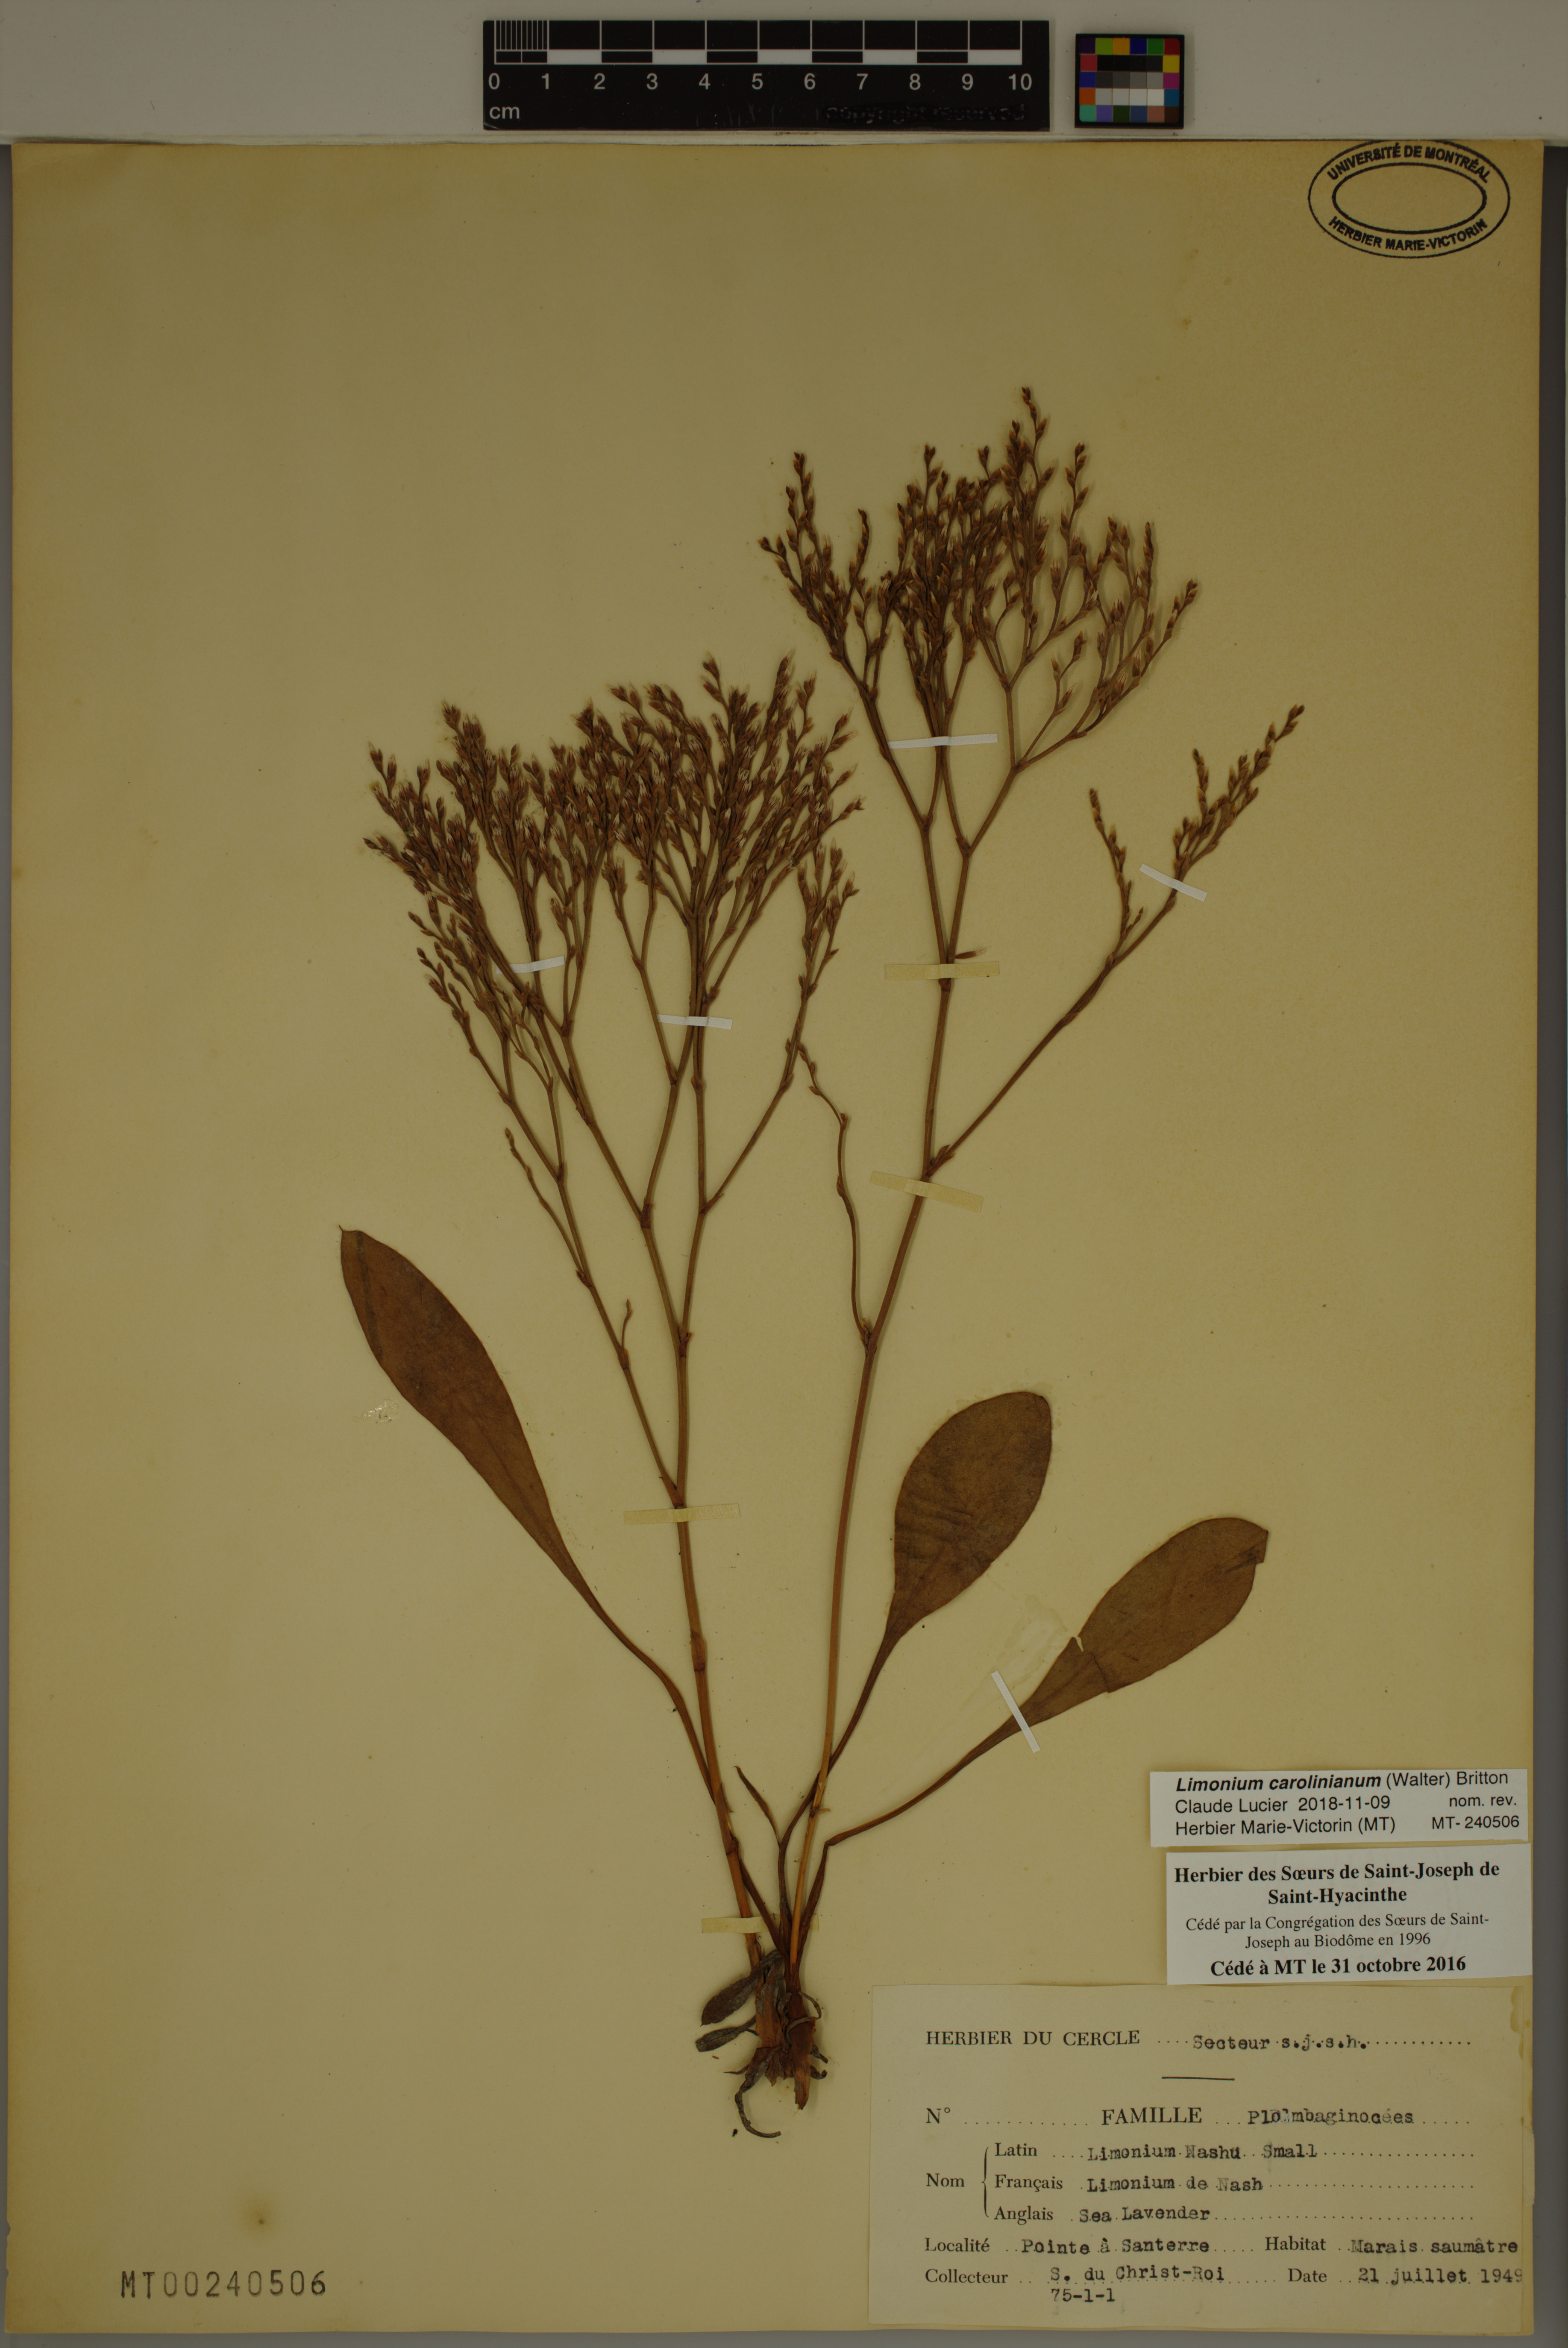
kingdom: Plantae
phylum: Tracheophyta
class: Magnoliopsida
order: Caryophyllales
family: Plumbaginaceae
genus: Limonium
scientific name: Limonium carolinianum
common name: Carolina sea lavender
